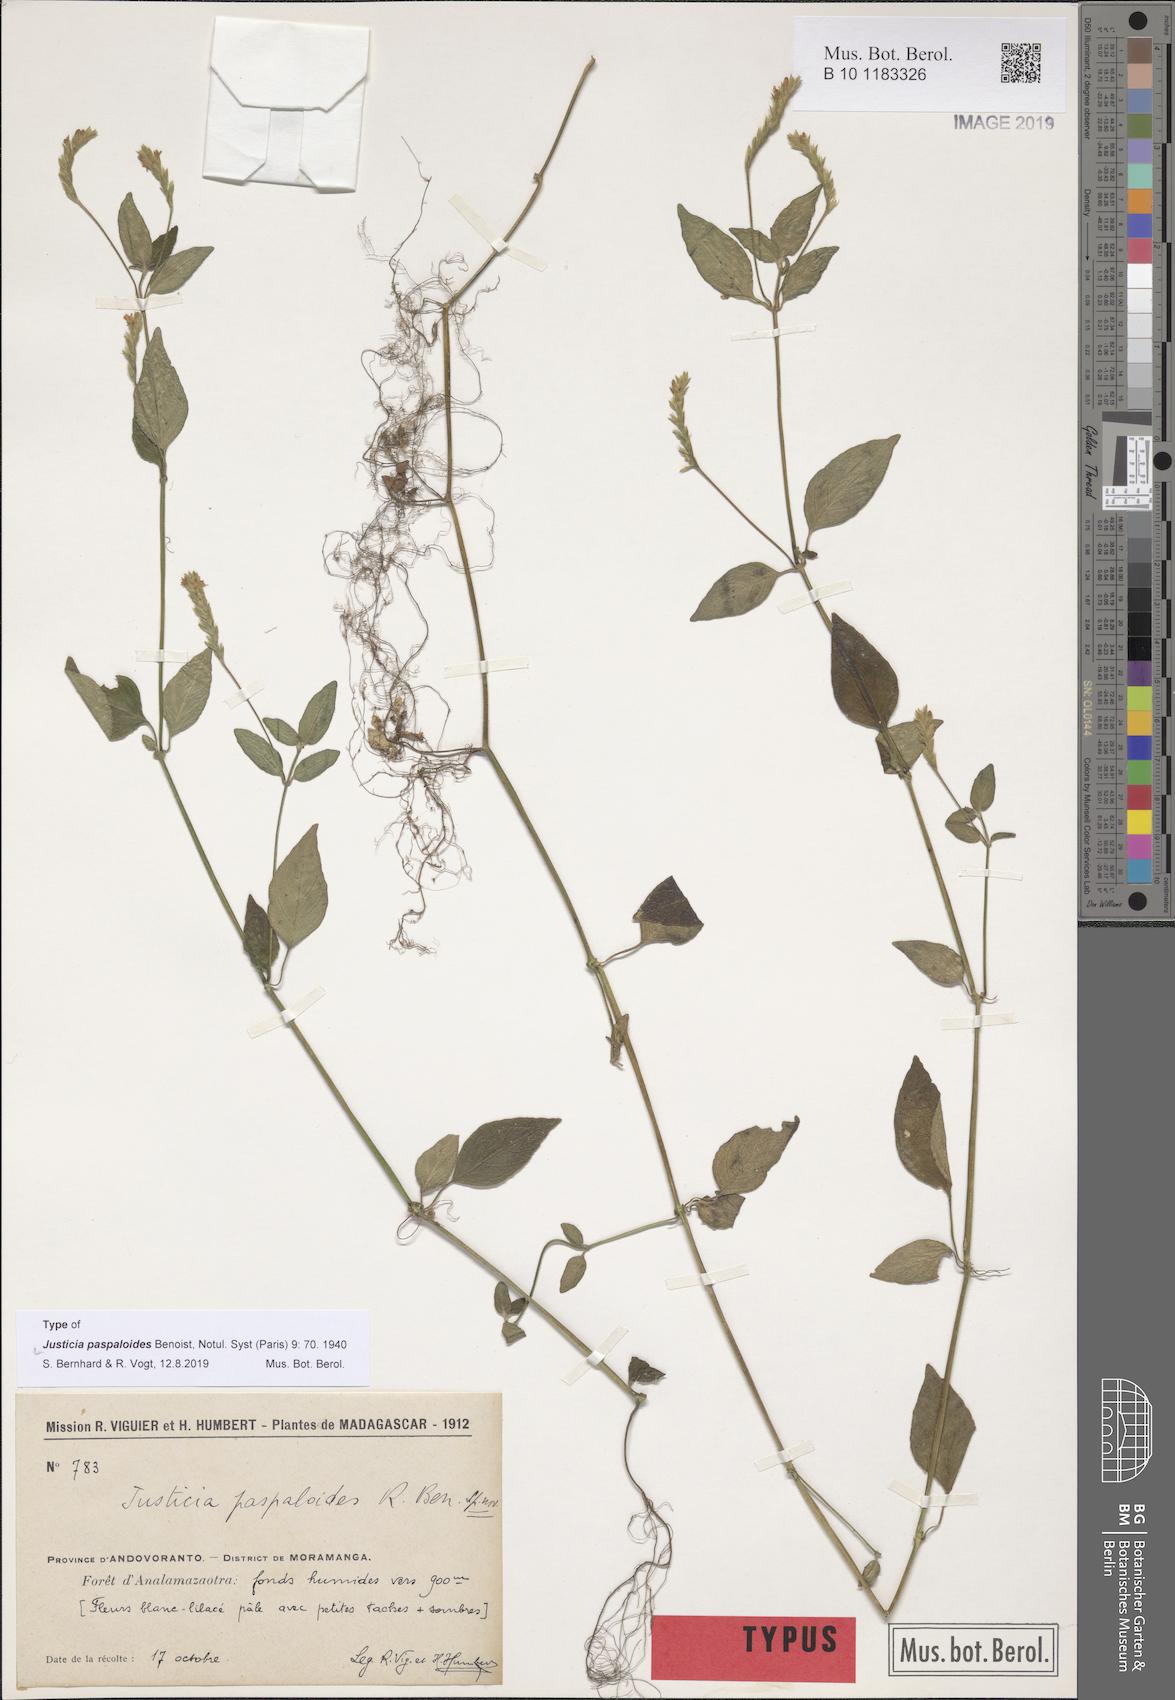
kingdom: Plantae
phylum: Tracheophyta
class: Magnoliopsida
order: Lamiales
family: Acanthaceae
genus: Justicia
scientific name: Justicia paspaloides
